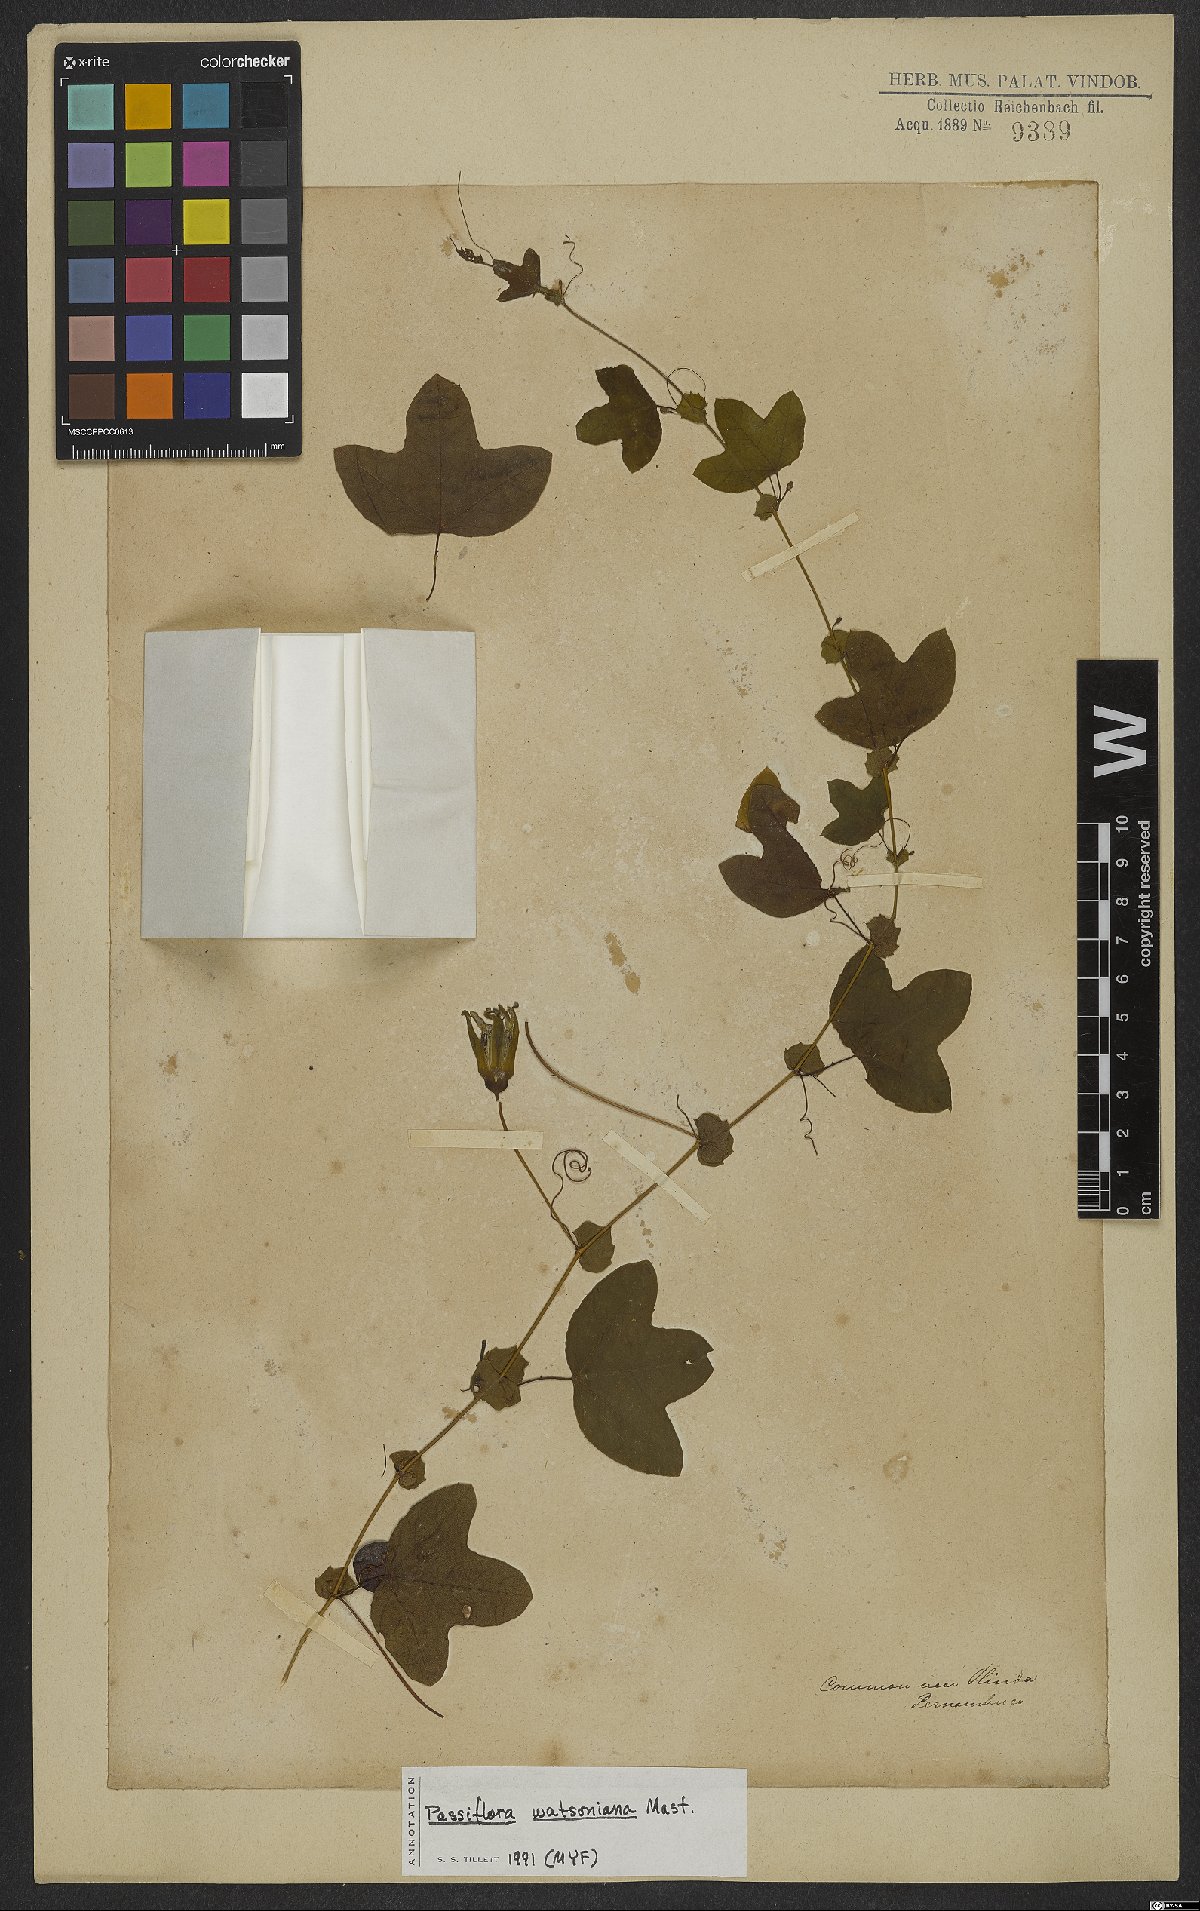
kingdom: Plantae
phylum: Tracheophyta
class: Magnoliopsida
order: Malpighiales
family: Passifloraceae
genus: Passiflora
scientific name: Passiflora watsoniana
